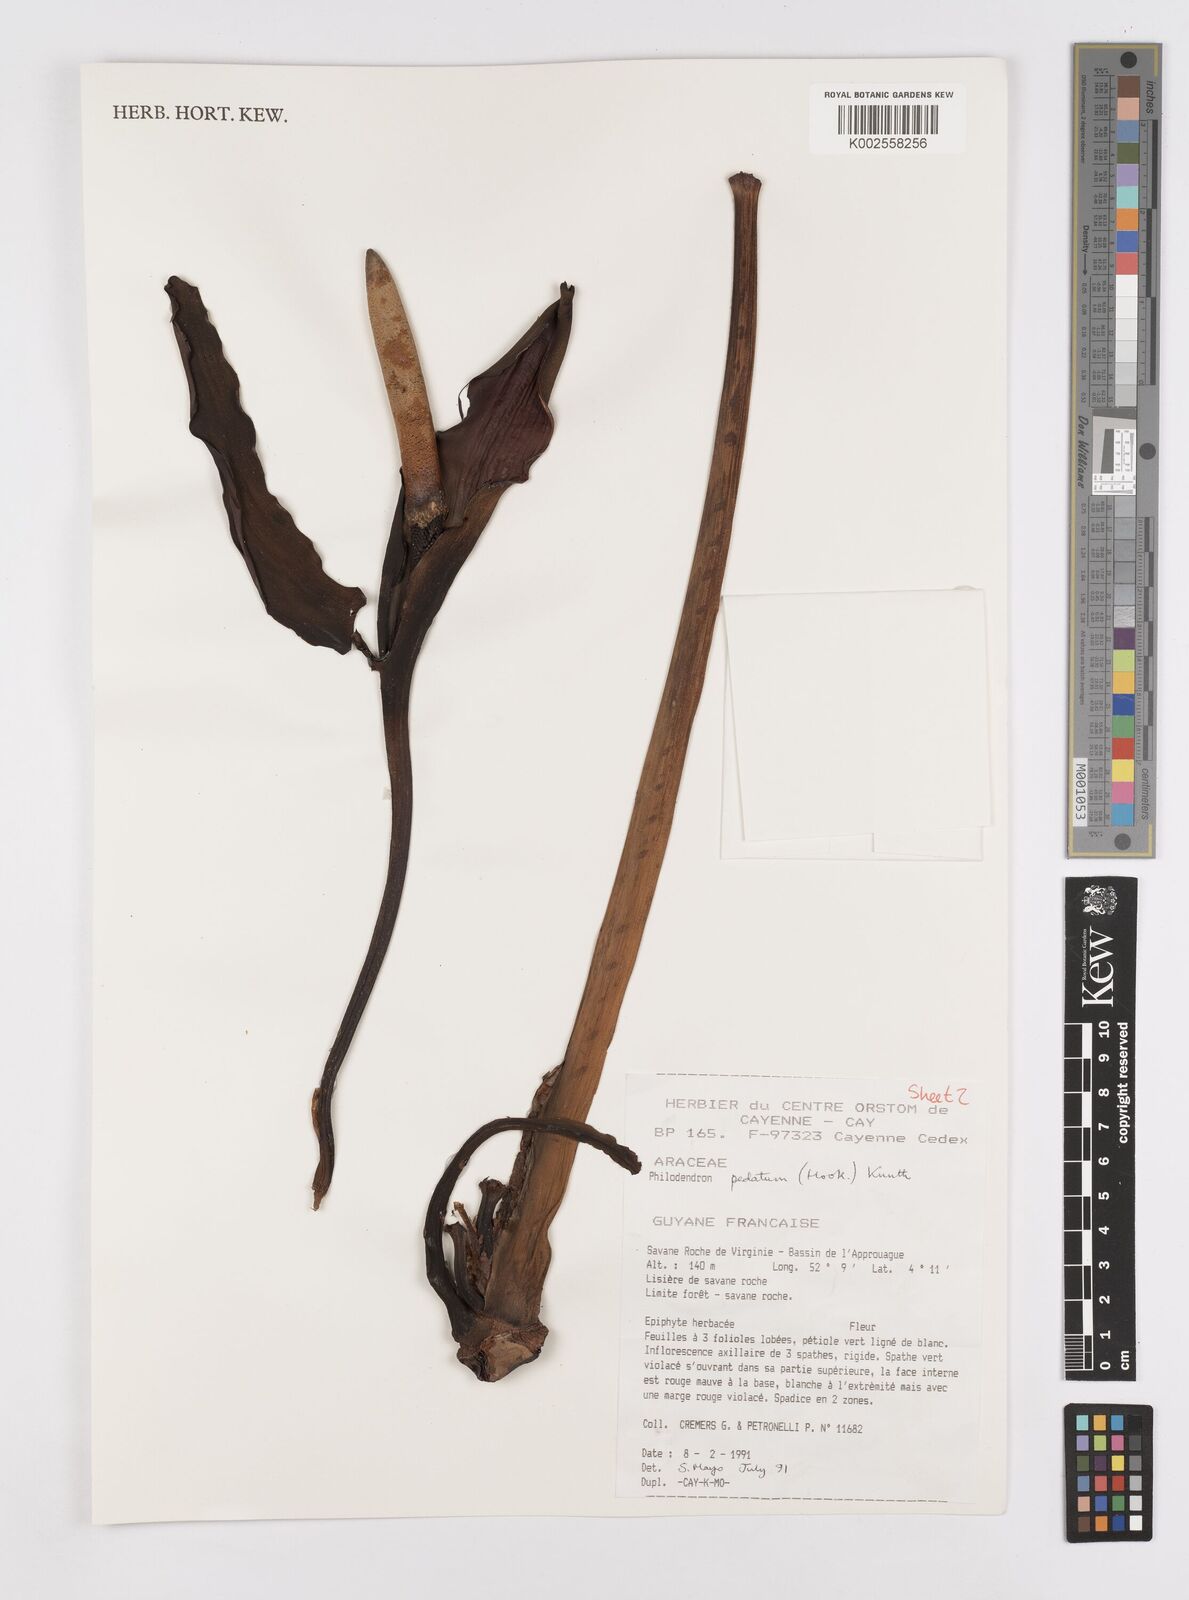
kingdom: Plantae
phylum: Tracheophyta
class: Liliopsida
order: Alismatales
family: Araceae
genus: Philodendron
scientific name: Philodendron pedatum
